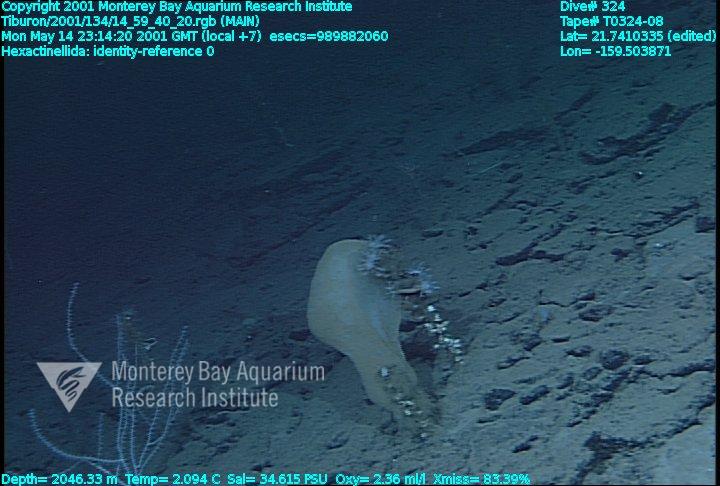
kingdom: Animalia
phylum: Porifera
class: Hexactinellida
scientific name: Hexactinellida
